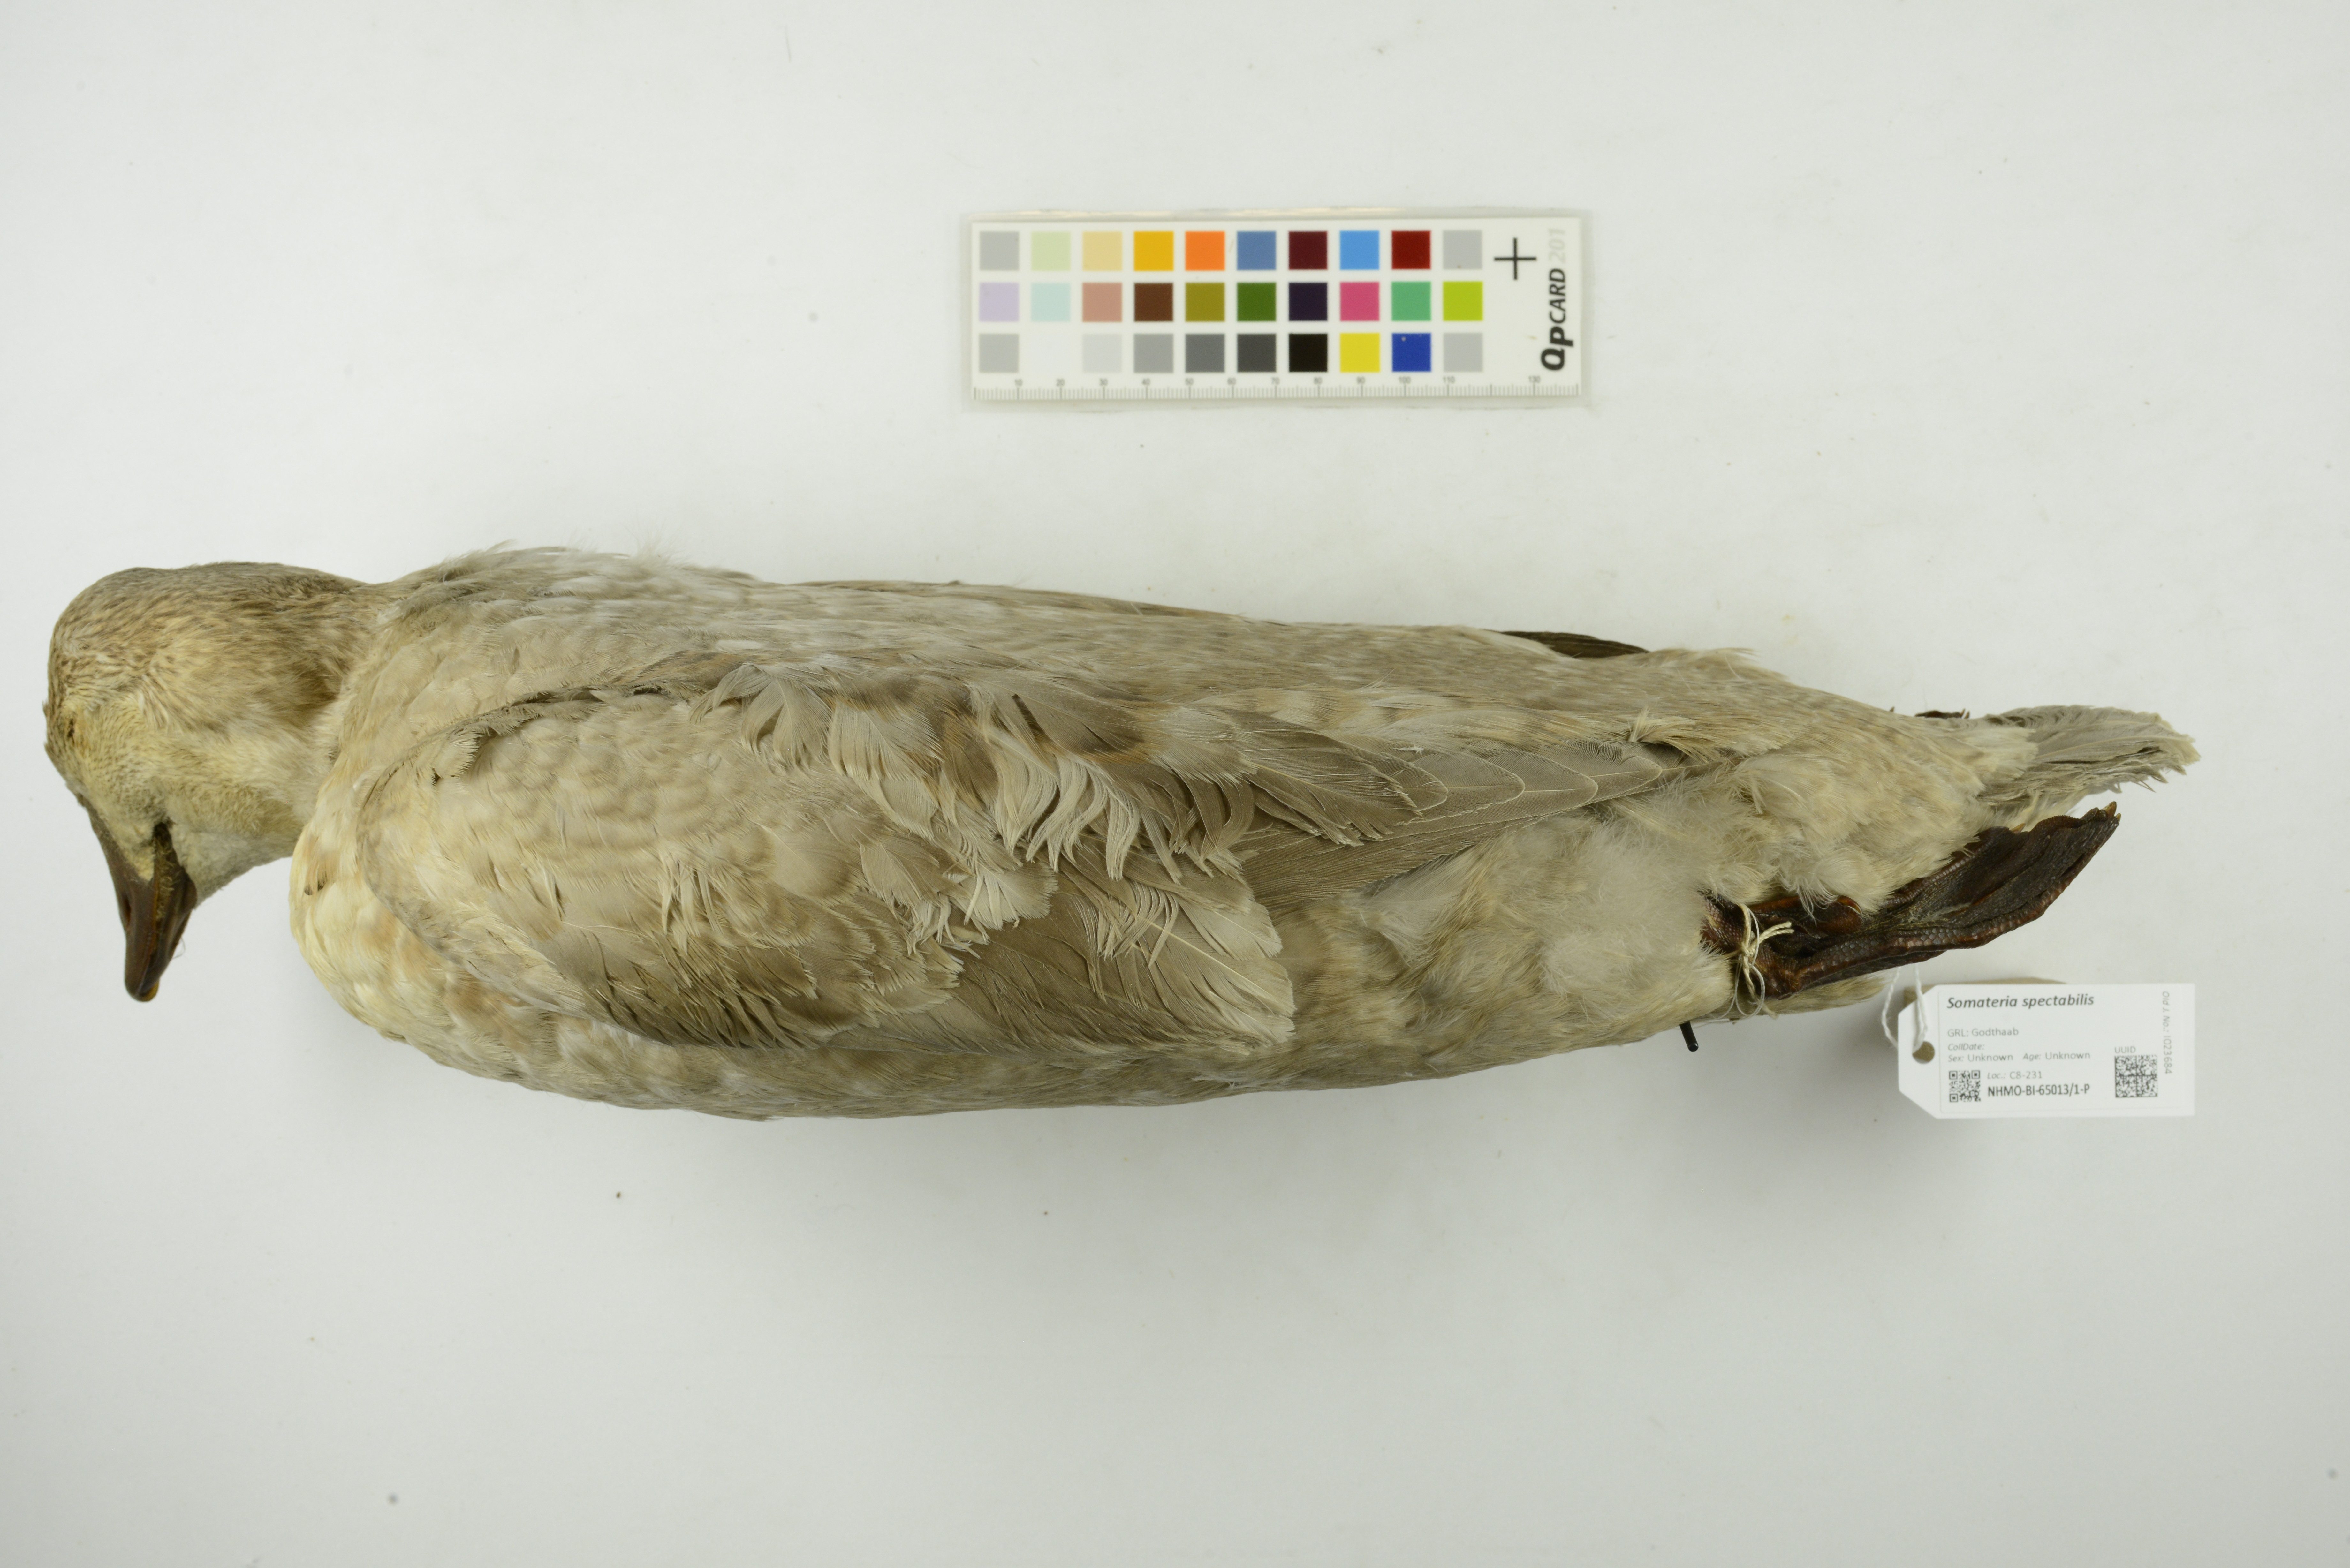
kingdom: Animalia
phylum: Chordata
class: Aves
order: Anseriformes
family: Anatidae
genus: Somateria
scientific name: Somateria spectabilis
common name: King eider
